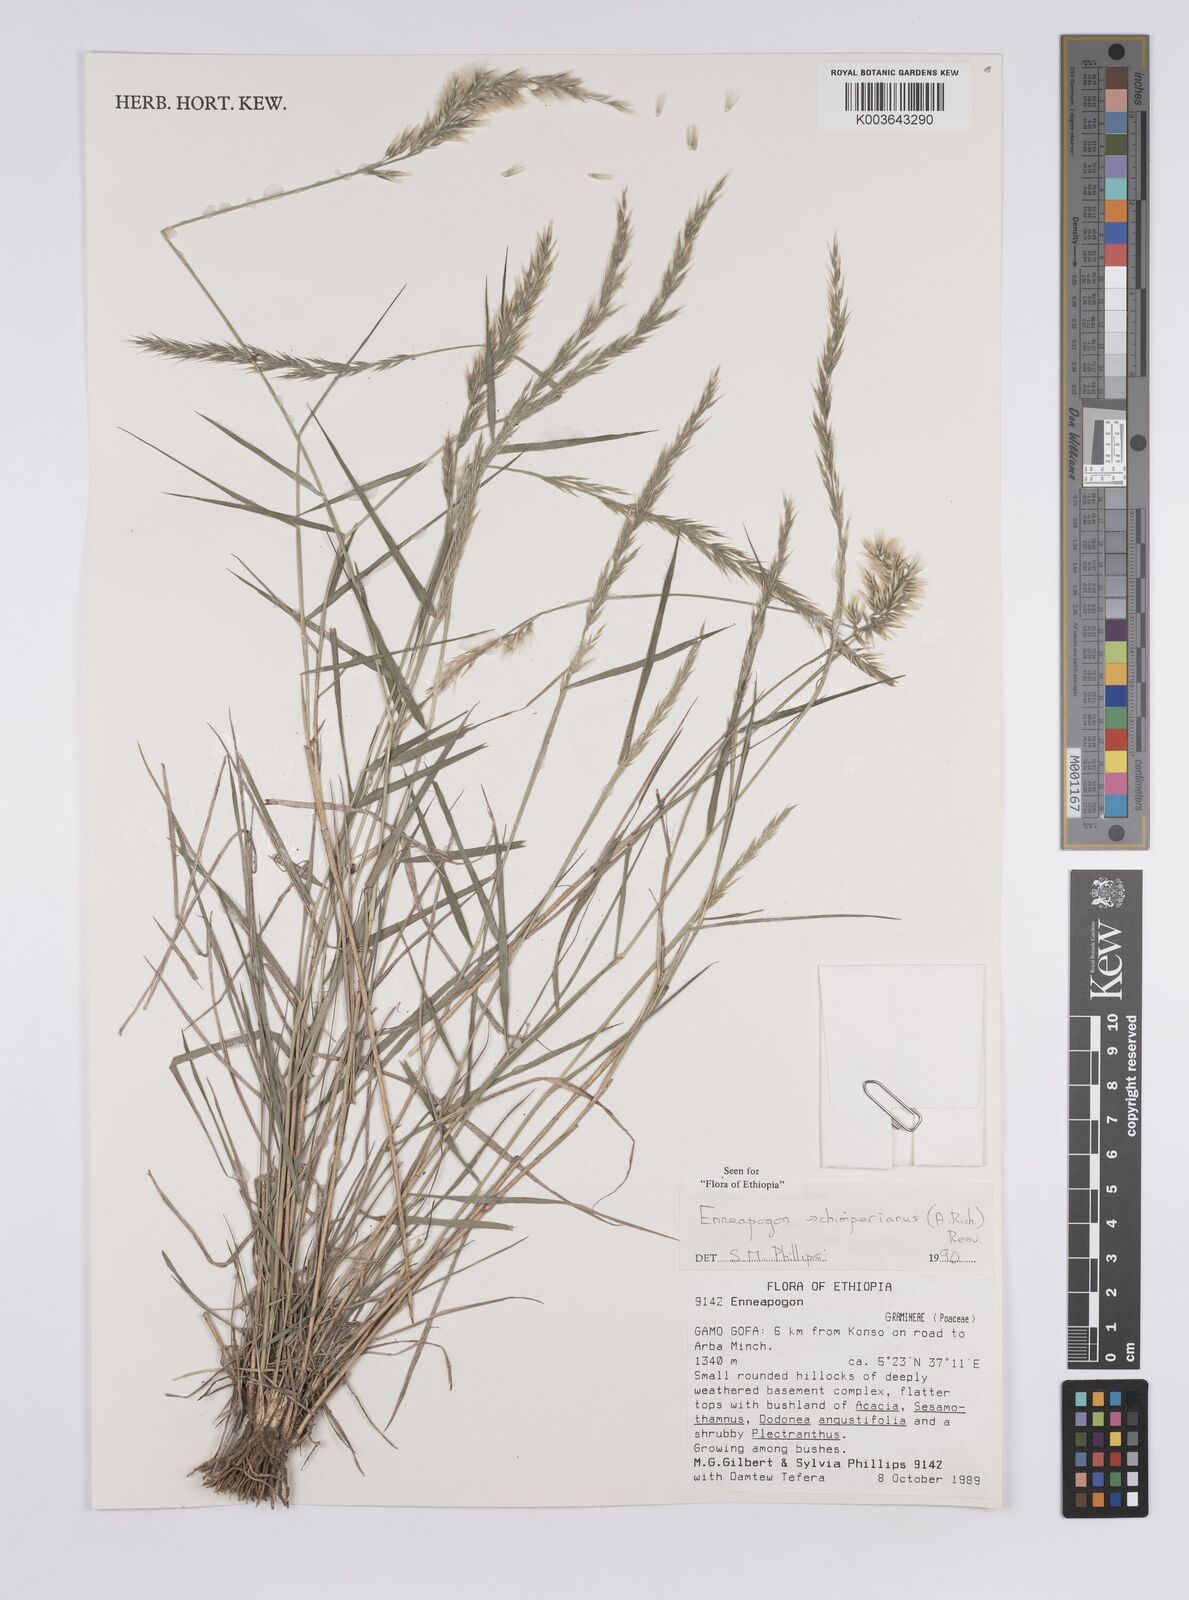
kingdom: Plantae
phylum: Tracheophyta
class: Liliopsida
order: Poales
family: Poaceae
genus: Enneapogon
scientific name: Enneapogon persicus
